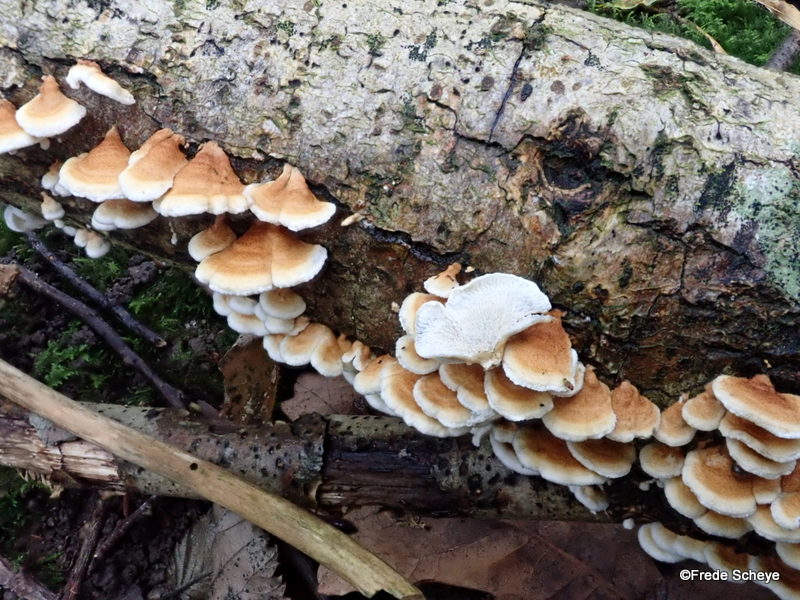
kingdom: Fungi
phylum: Basidiomycota
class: Agaricomycetes
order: Amylocorticiales
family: Amylocorticiaceae
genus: Plicaturopsis
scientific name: Plicaturopsis crispa
